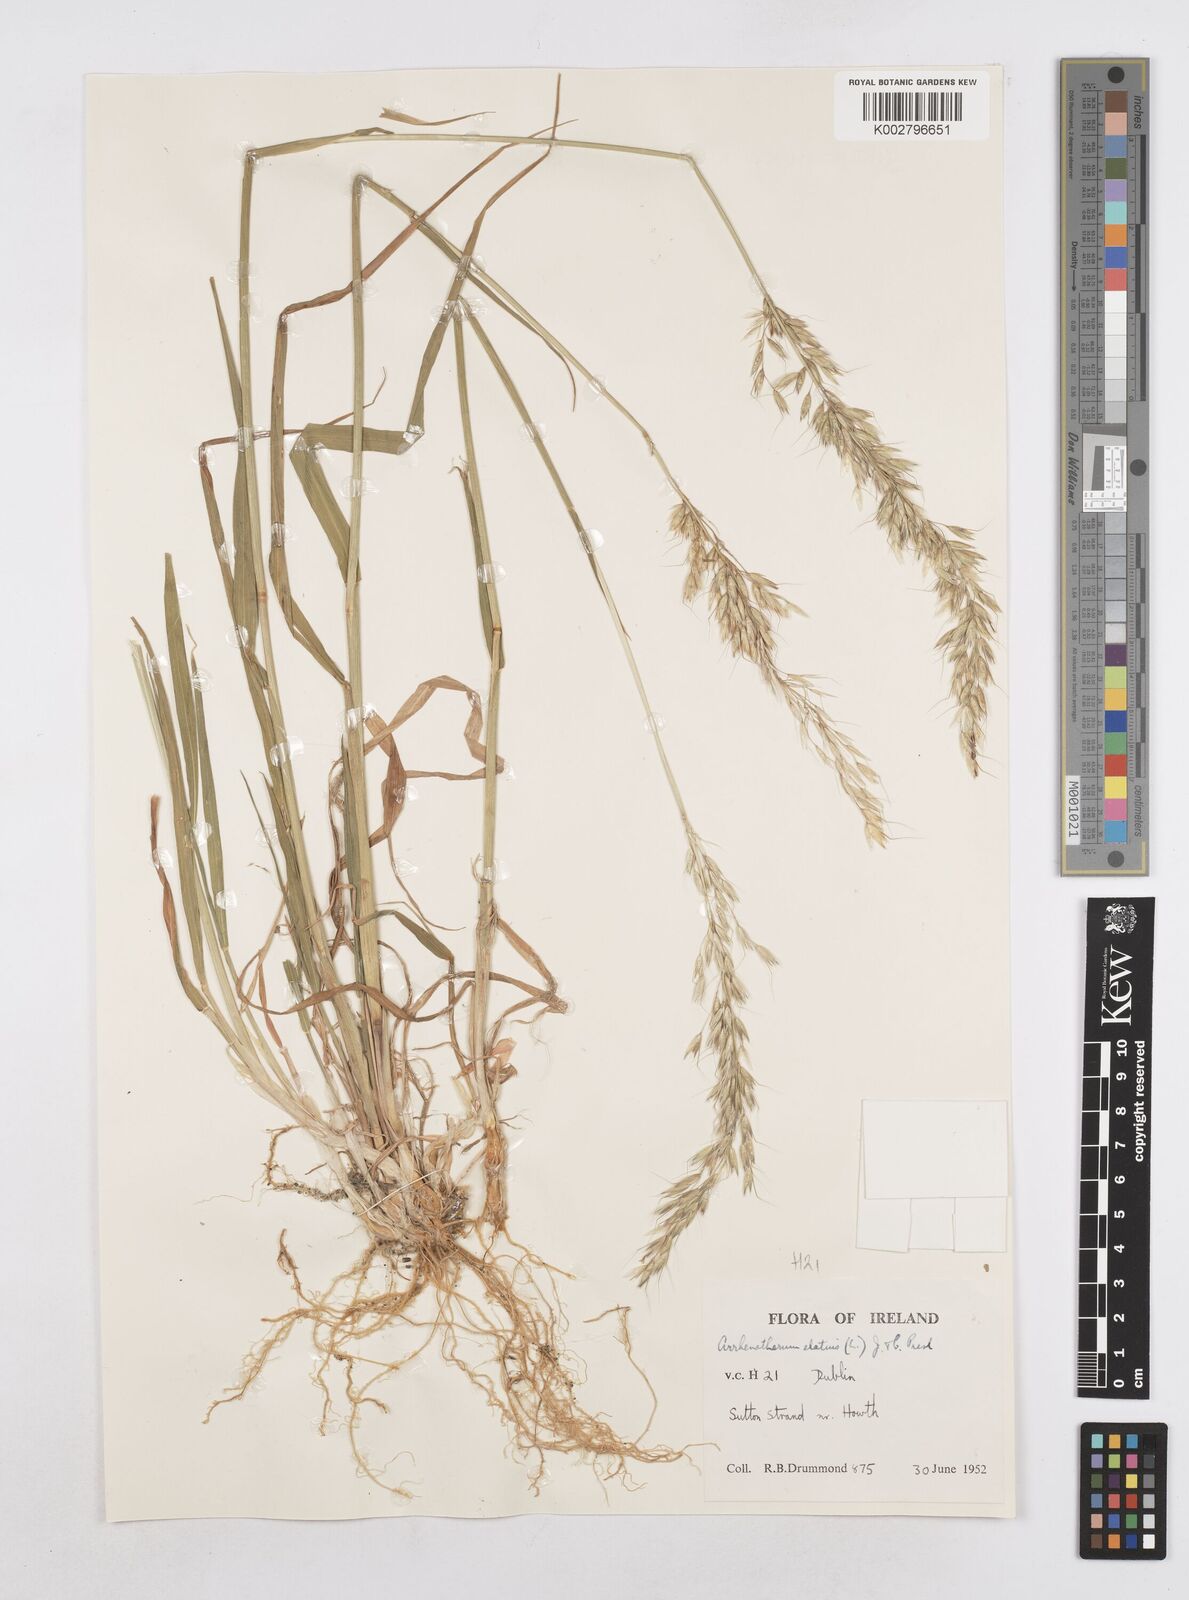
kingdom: Plantae
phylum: Tracheophyta
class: Liliopsida
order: Poales
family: Poaceae
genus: Arrhenatherum
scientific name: Arrhenatherum elatius
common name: Tall oatgrass
